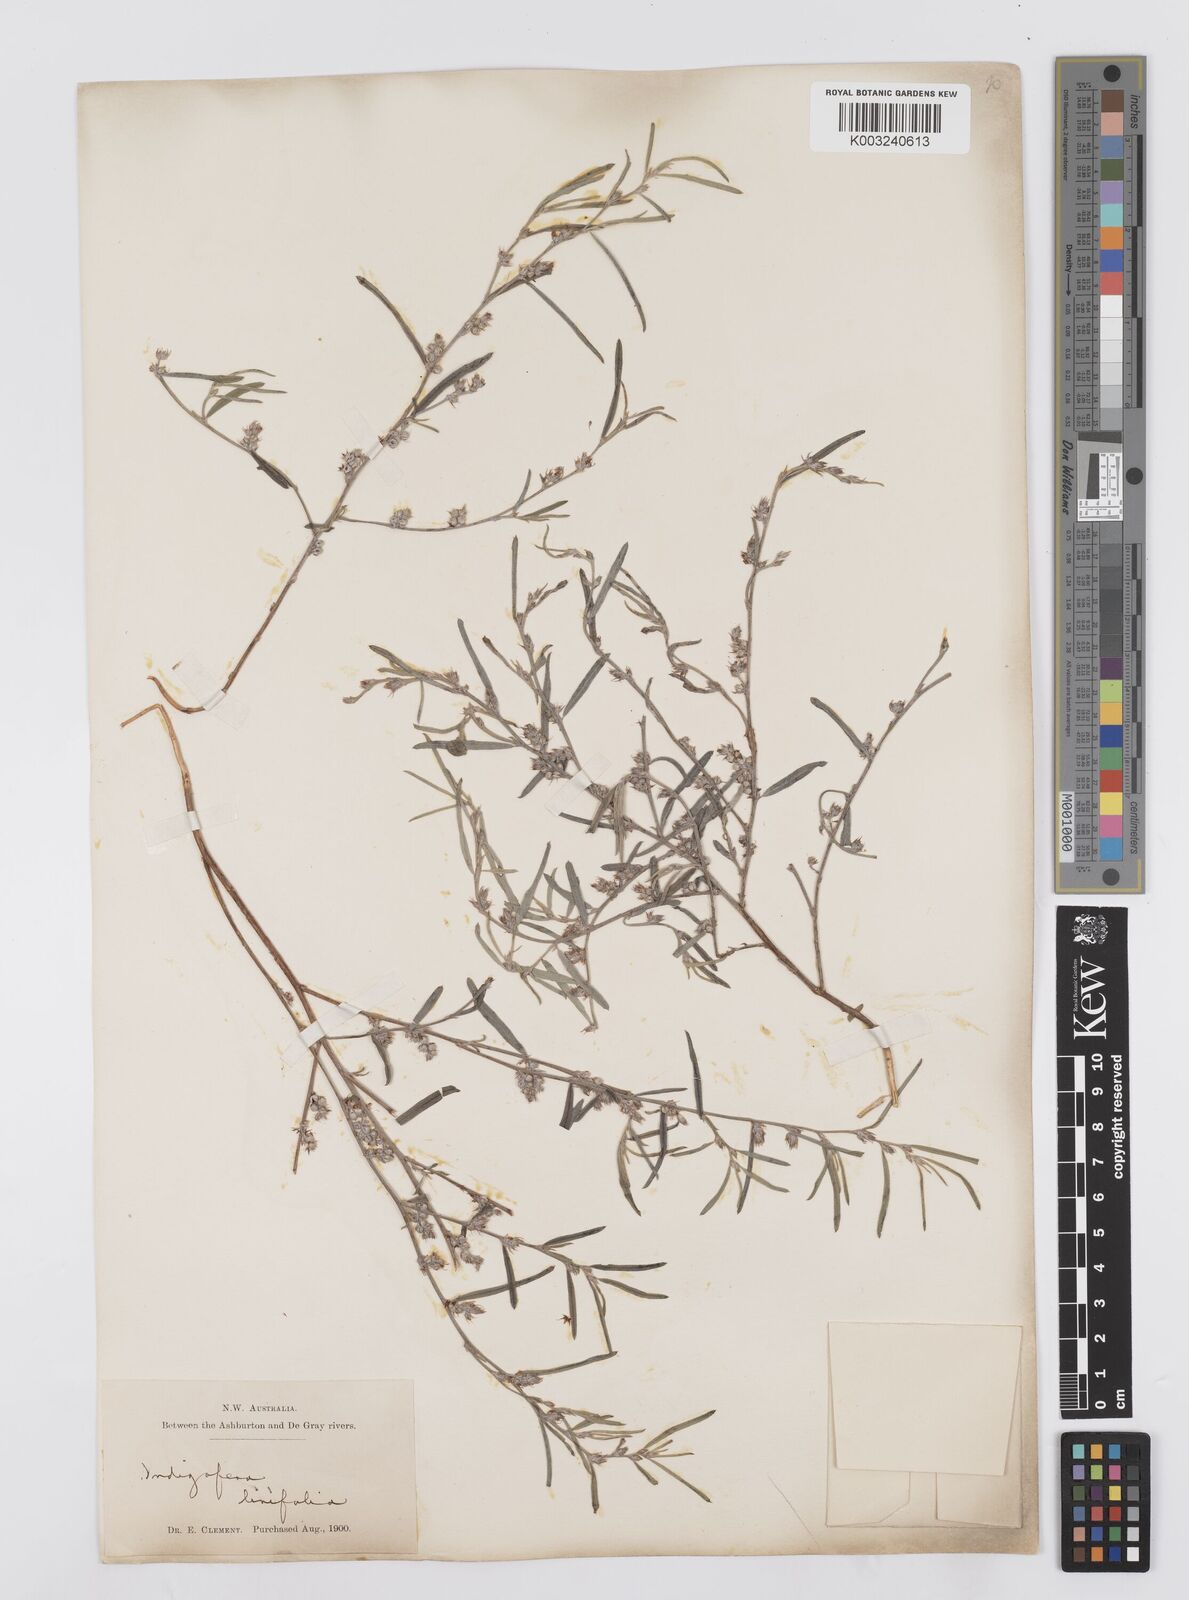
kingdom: Plantae
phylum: Tracheophyta
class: Magnoliopsida
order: Fabales
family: Fabaceae
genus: Indigofera
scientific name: Indigofera linifolia
